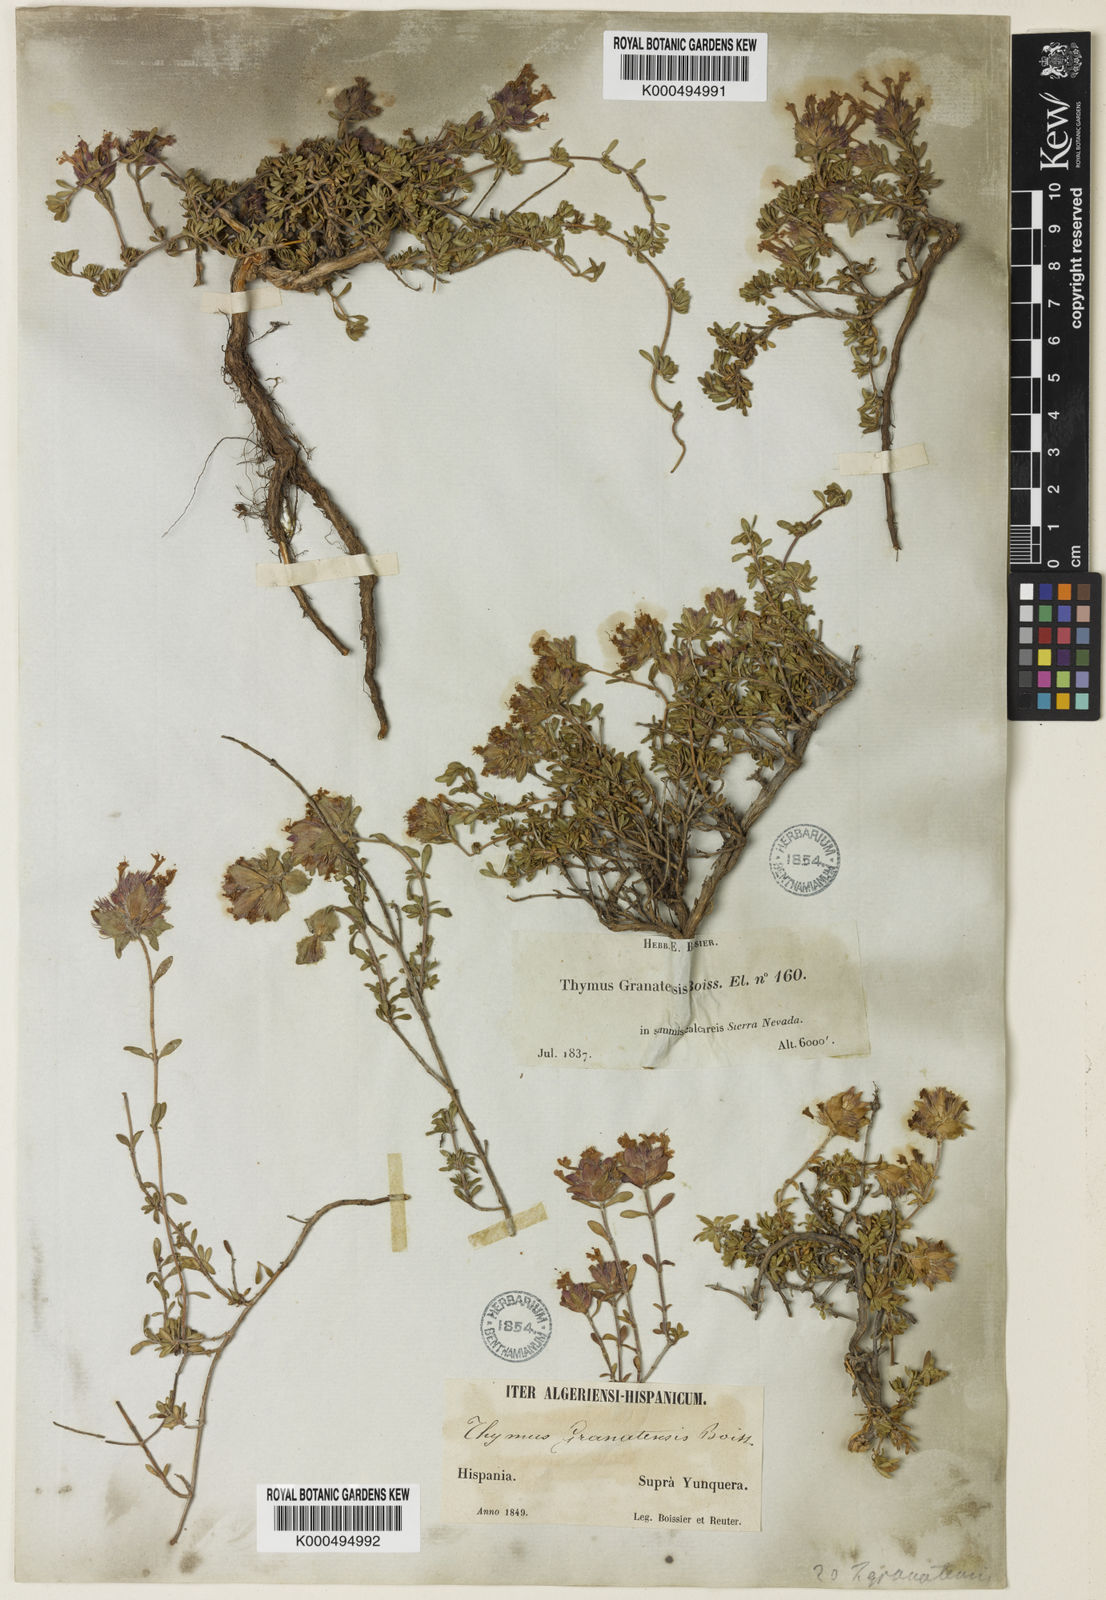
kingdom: Plantae
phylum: Tracheophyta
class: Magnoliopsida
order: Lamiales
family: Lamiaceae
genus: Thymus
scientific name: Thymus granatensis
